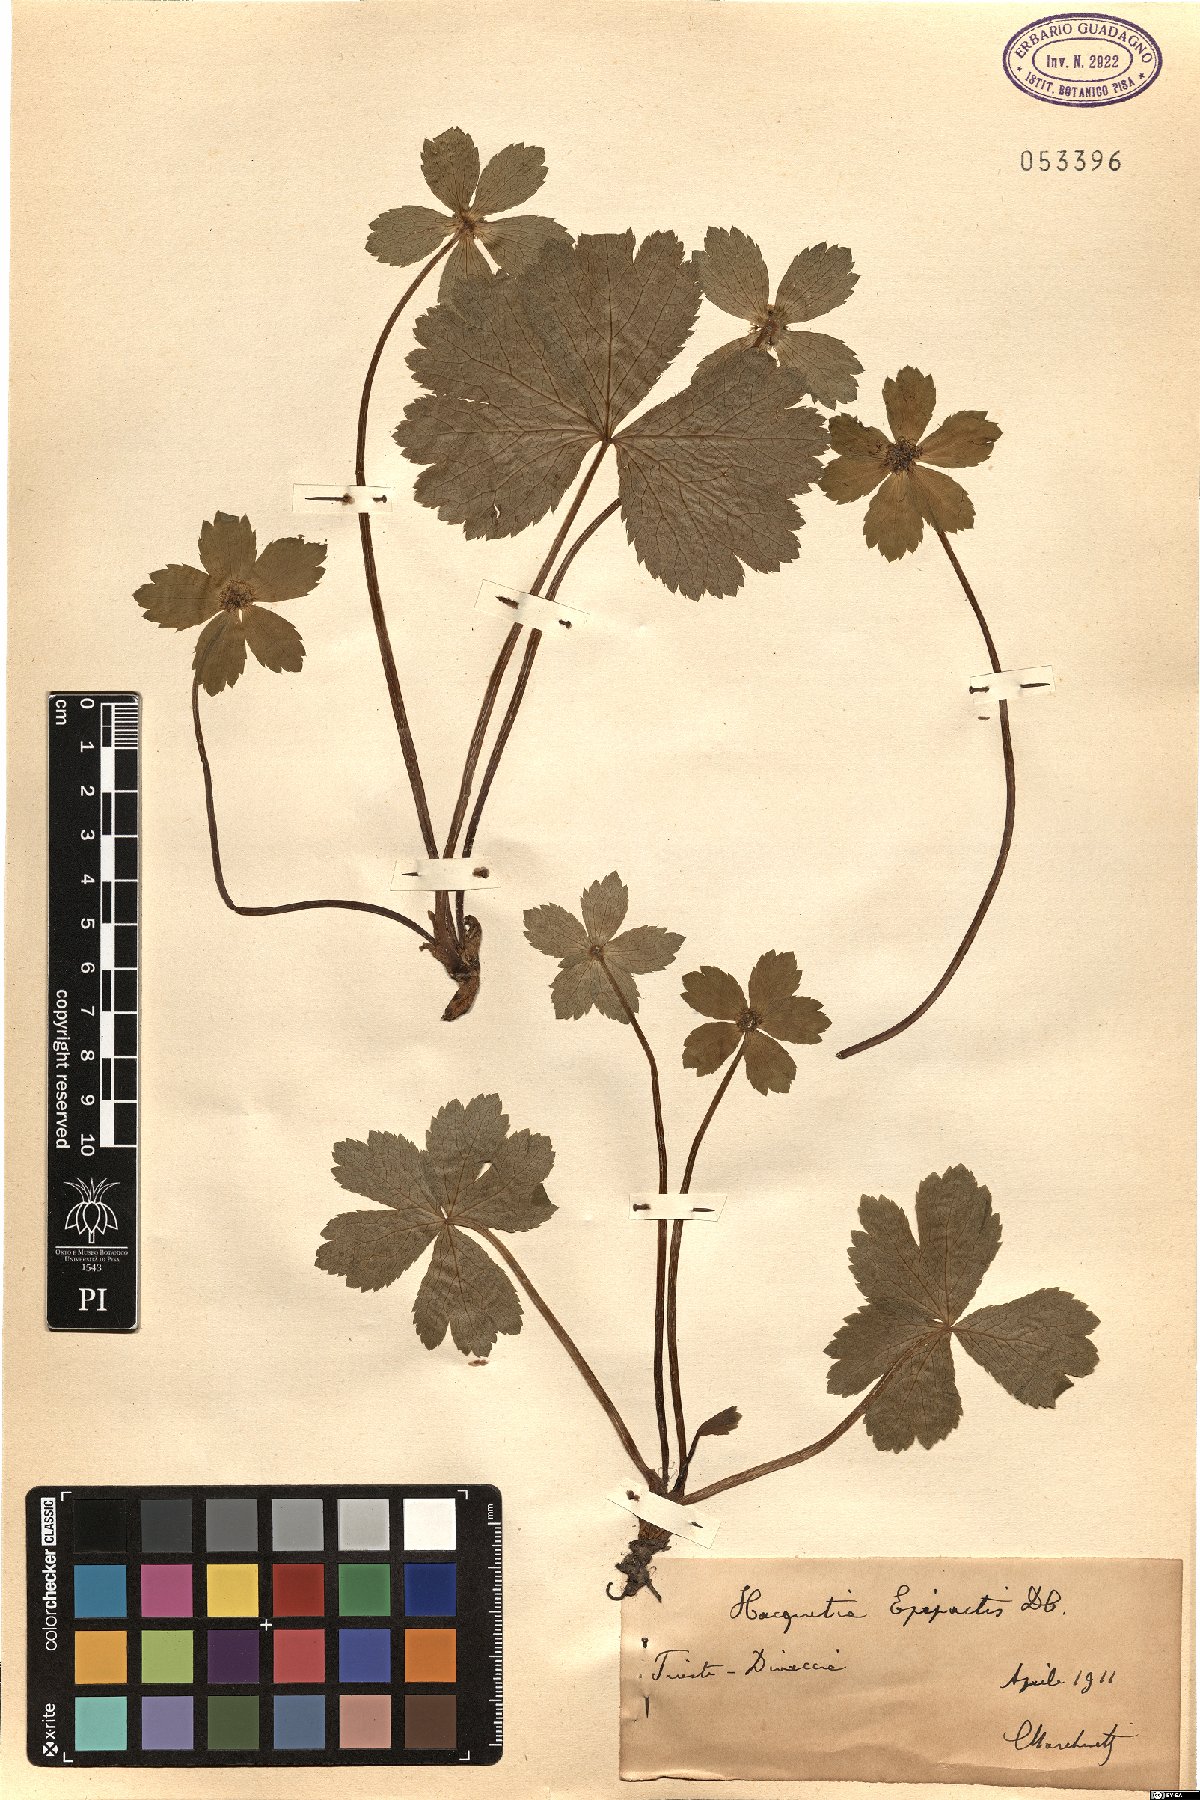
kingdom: Plantae
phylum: Tracheophyta
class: Magnoliopsida
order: Apiales
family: Apiaceae
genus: Sanicula
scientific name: Sanicula epipactis
